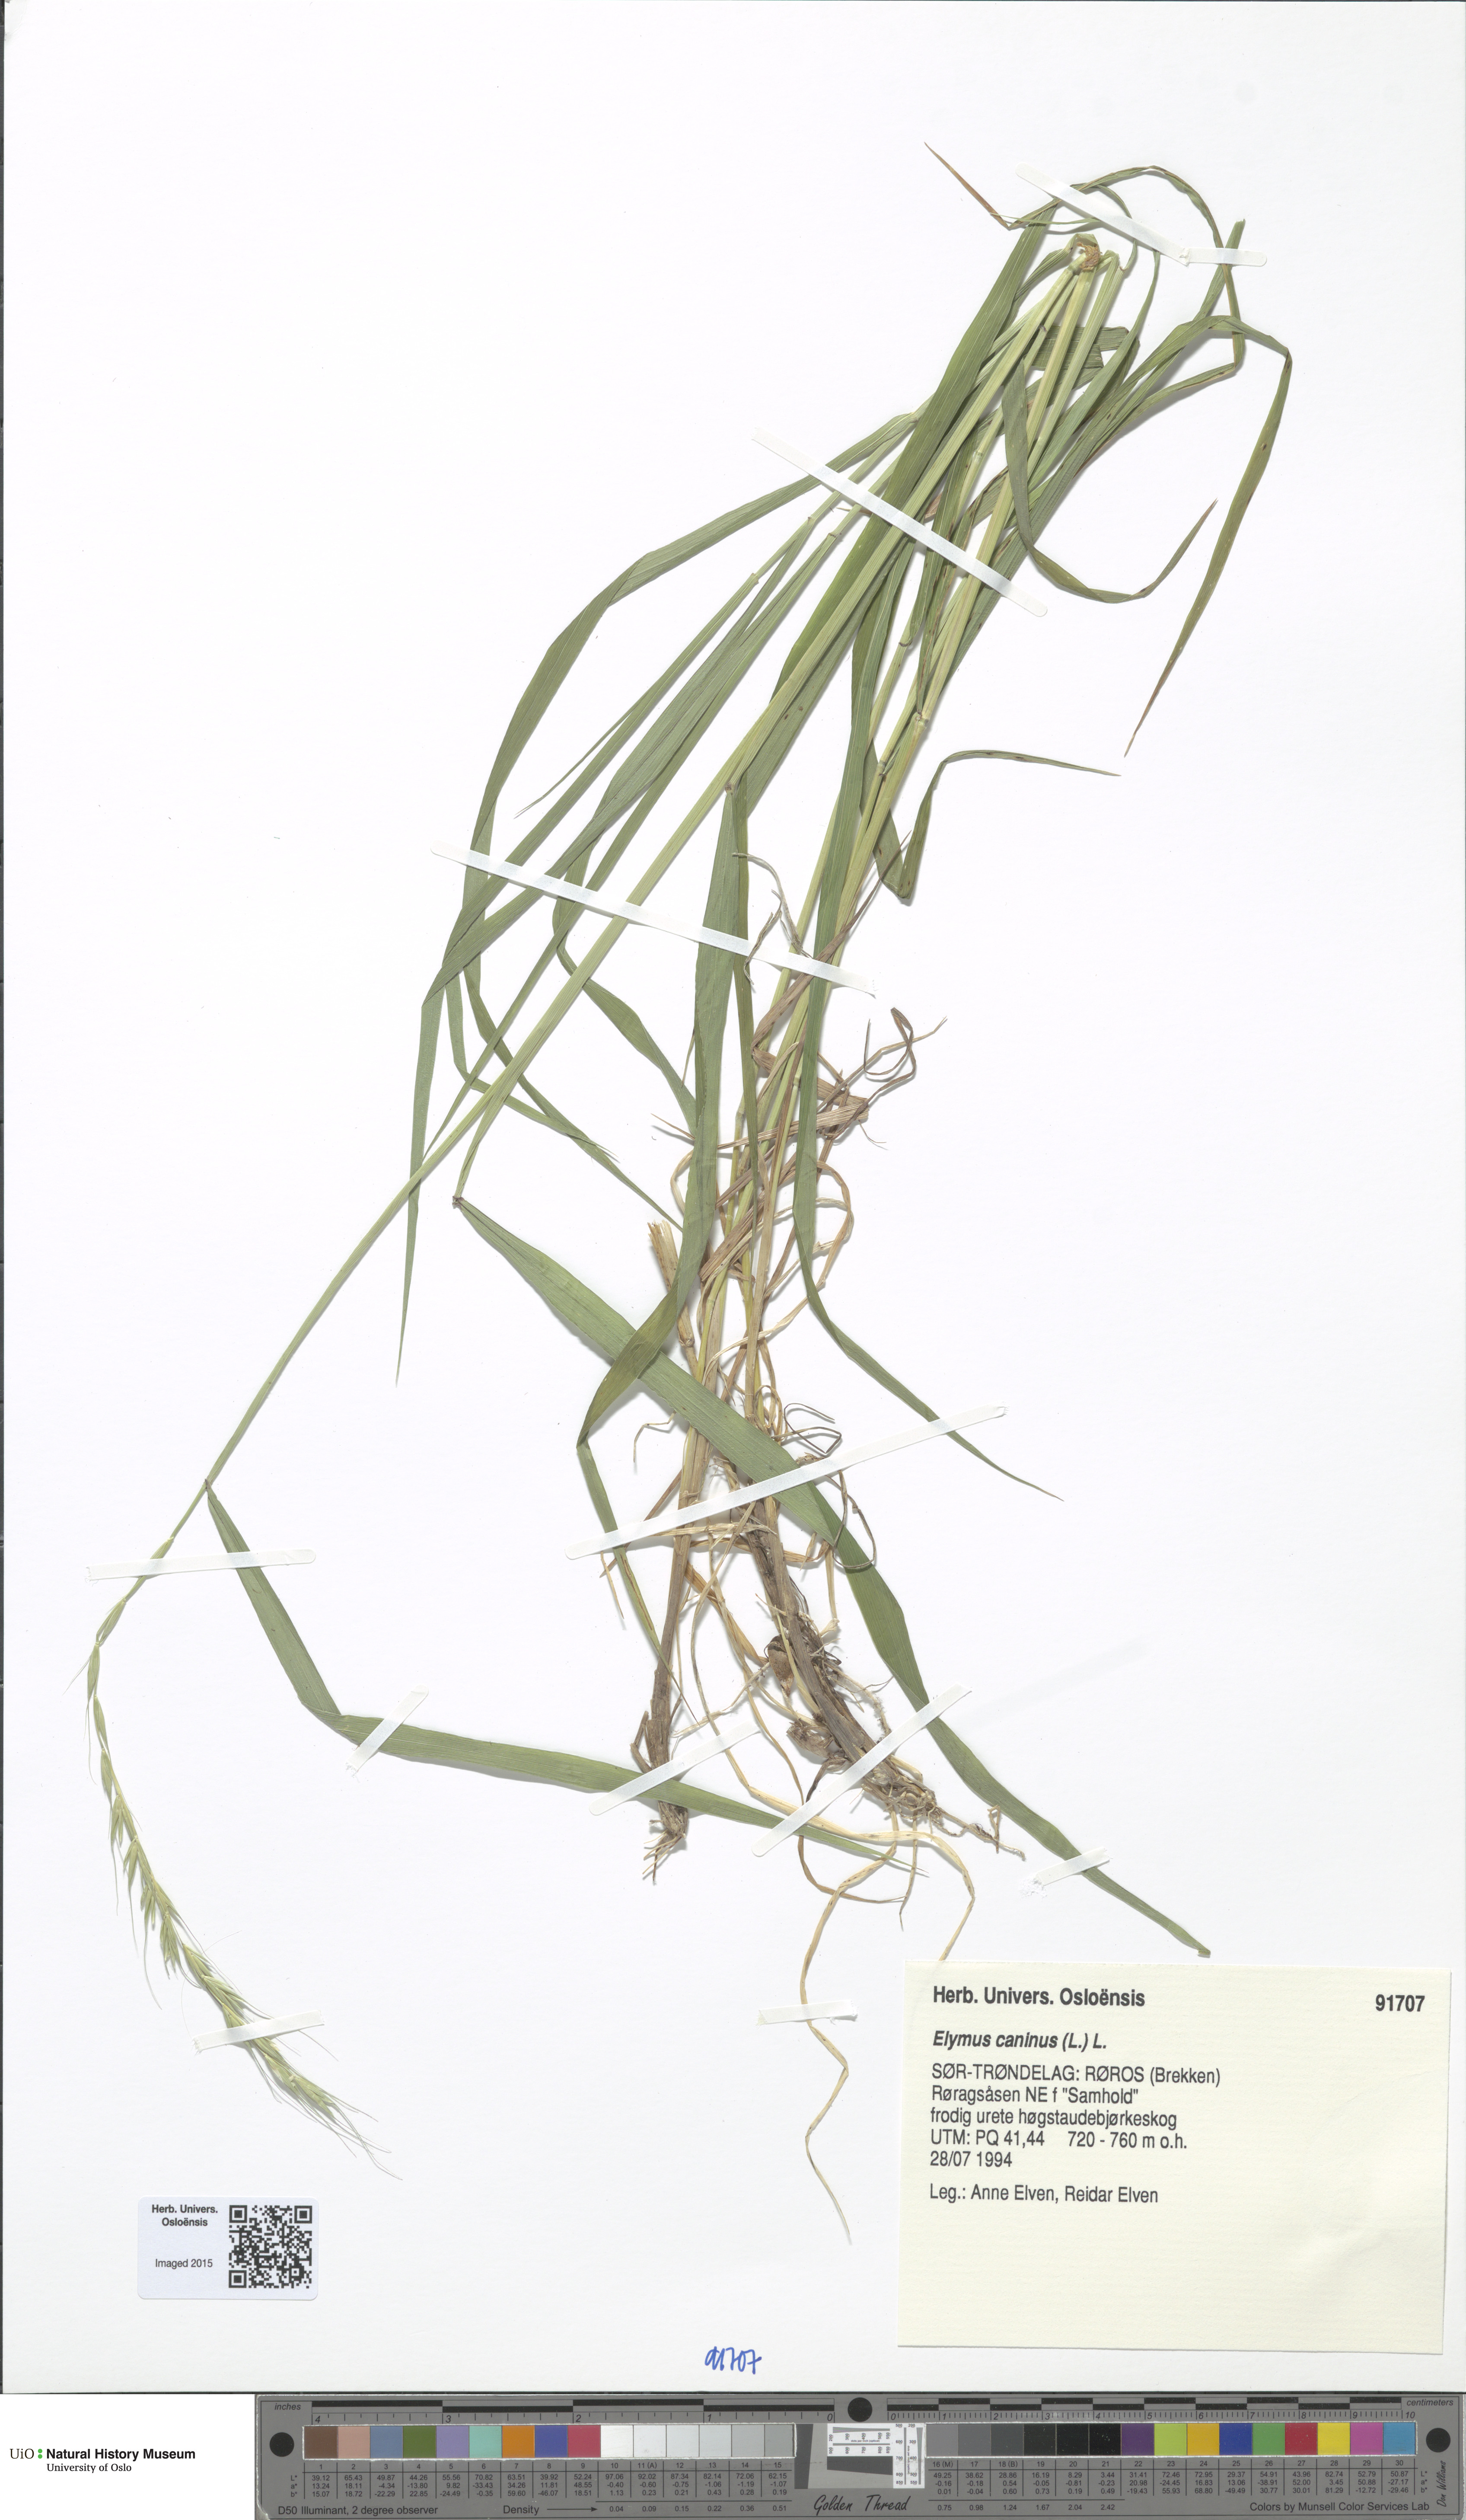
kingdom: Plantae
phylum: Tracheophyta
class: Liliopsida
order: Poales
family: Poaceae
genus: Elymus
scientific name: Elymus caninus
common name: Bearded couch
